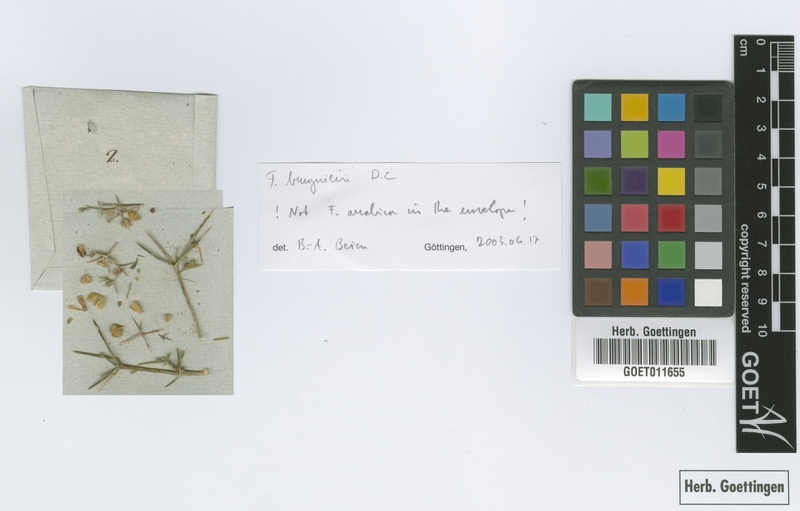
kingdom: Plantae
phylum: Tracheophyta
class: Magnoliopsida
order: Zygophyllales
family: Zygophyllaceae
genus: Fagonia
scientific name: Fagonia arabica
